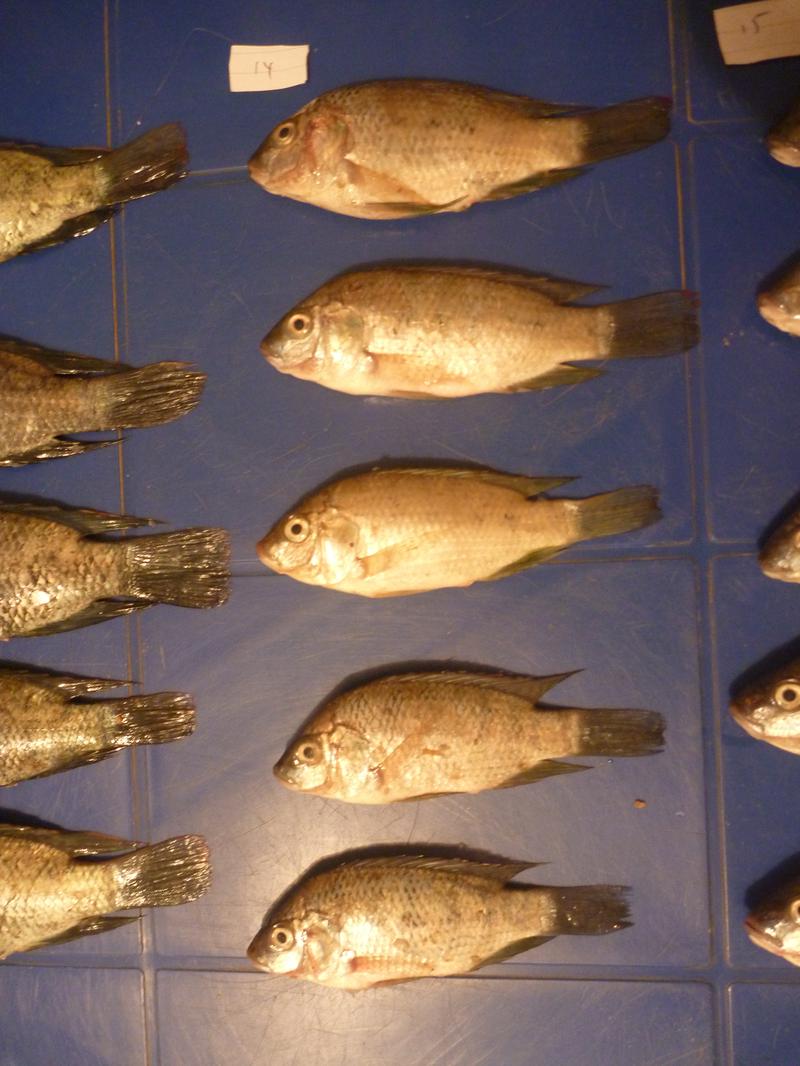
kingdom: Animalia
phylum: Chordata
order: Perciformes
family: Cichlidae
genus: Oreochromis
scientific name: Oreochromis urolepis
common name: Wami tilapia
